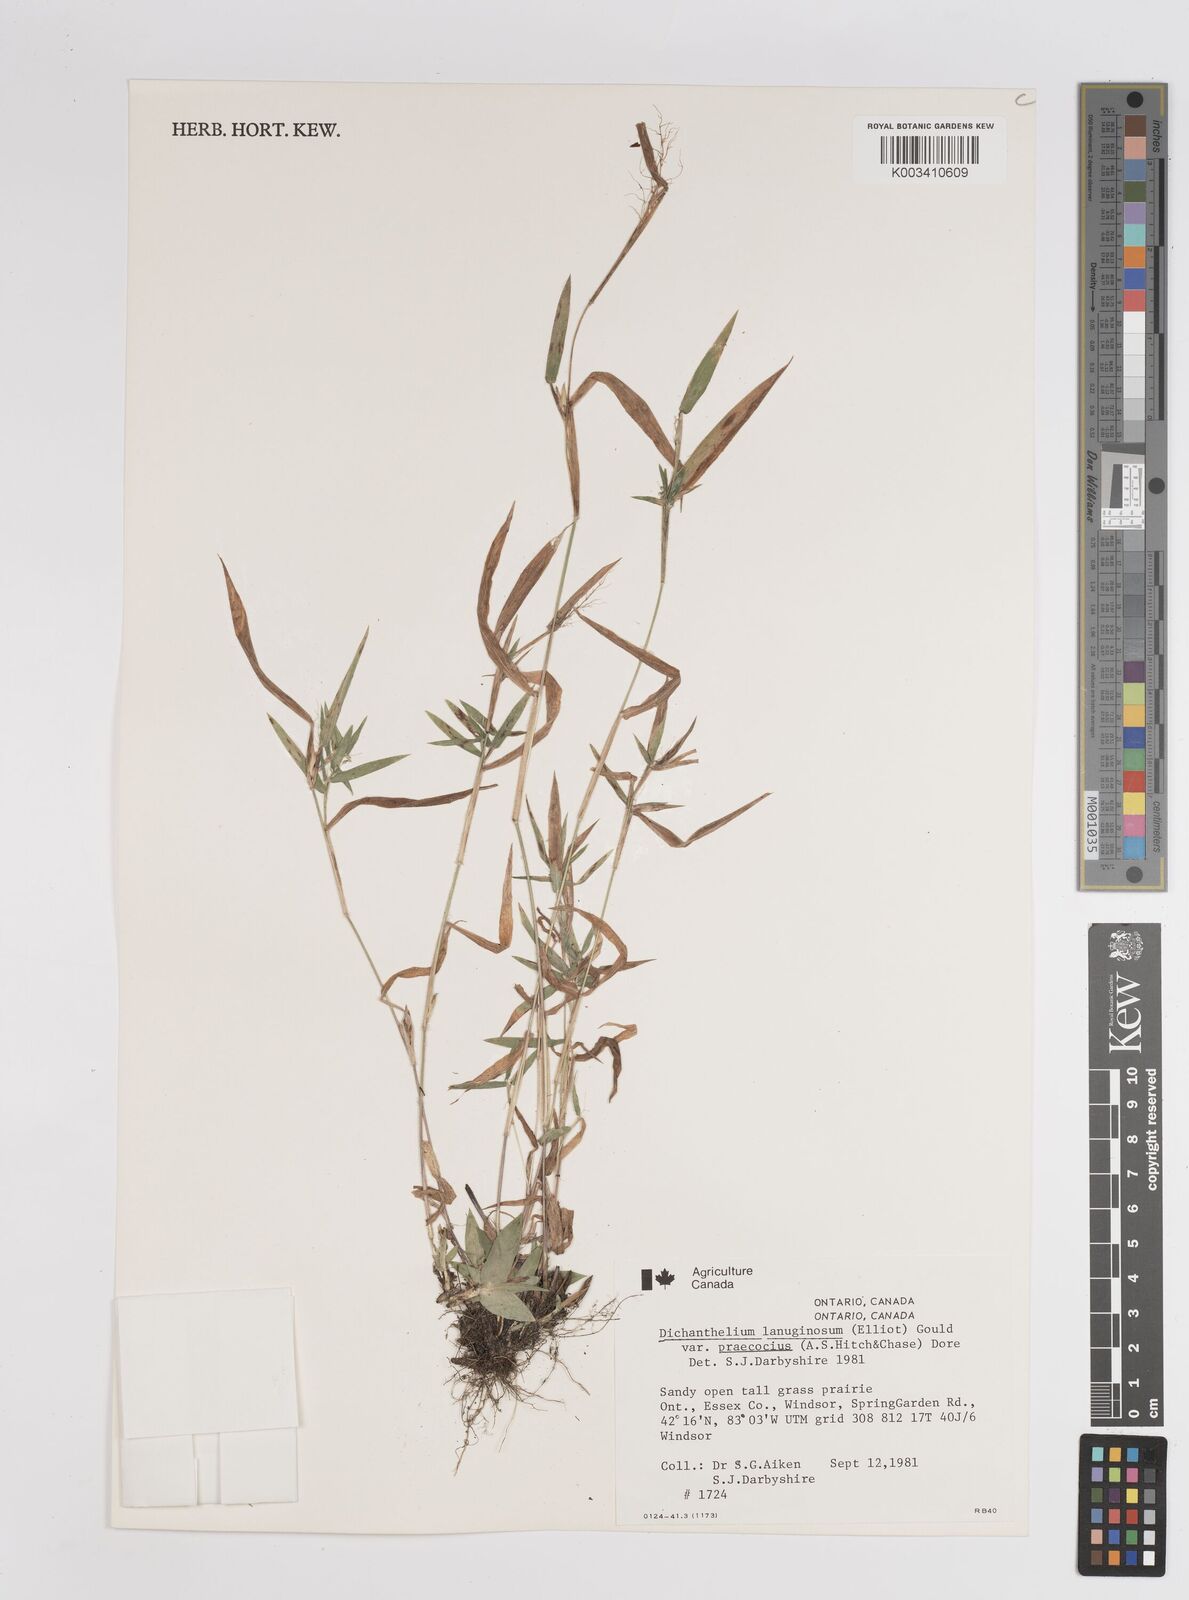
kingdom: Plantae
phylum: Tracheophyta
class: Liliopsida
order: Poales
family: Poaceae
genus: Dichanthelium
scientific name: Dichanthelium lanuginosum
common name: Woolly panicgrass
